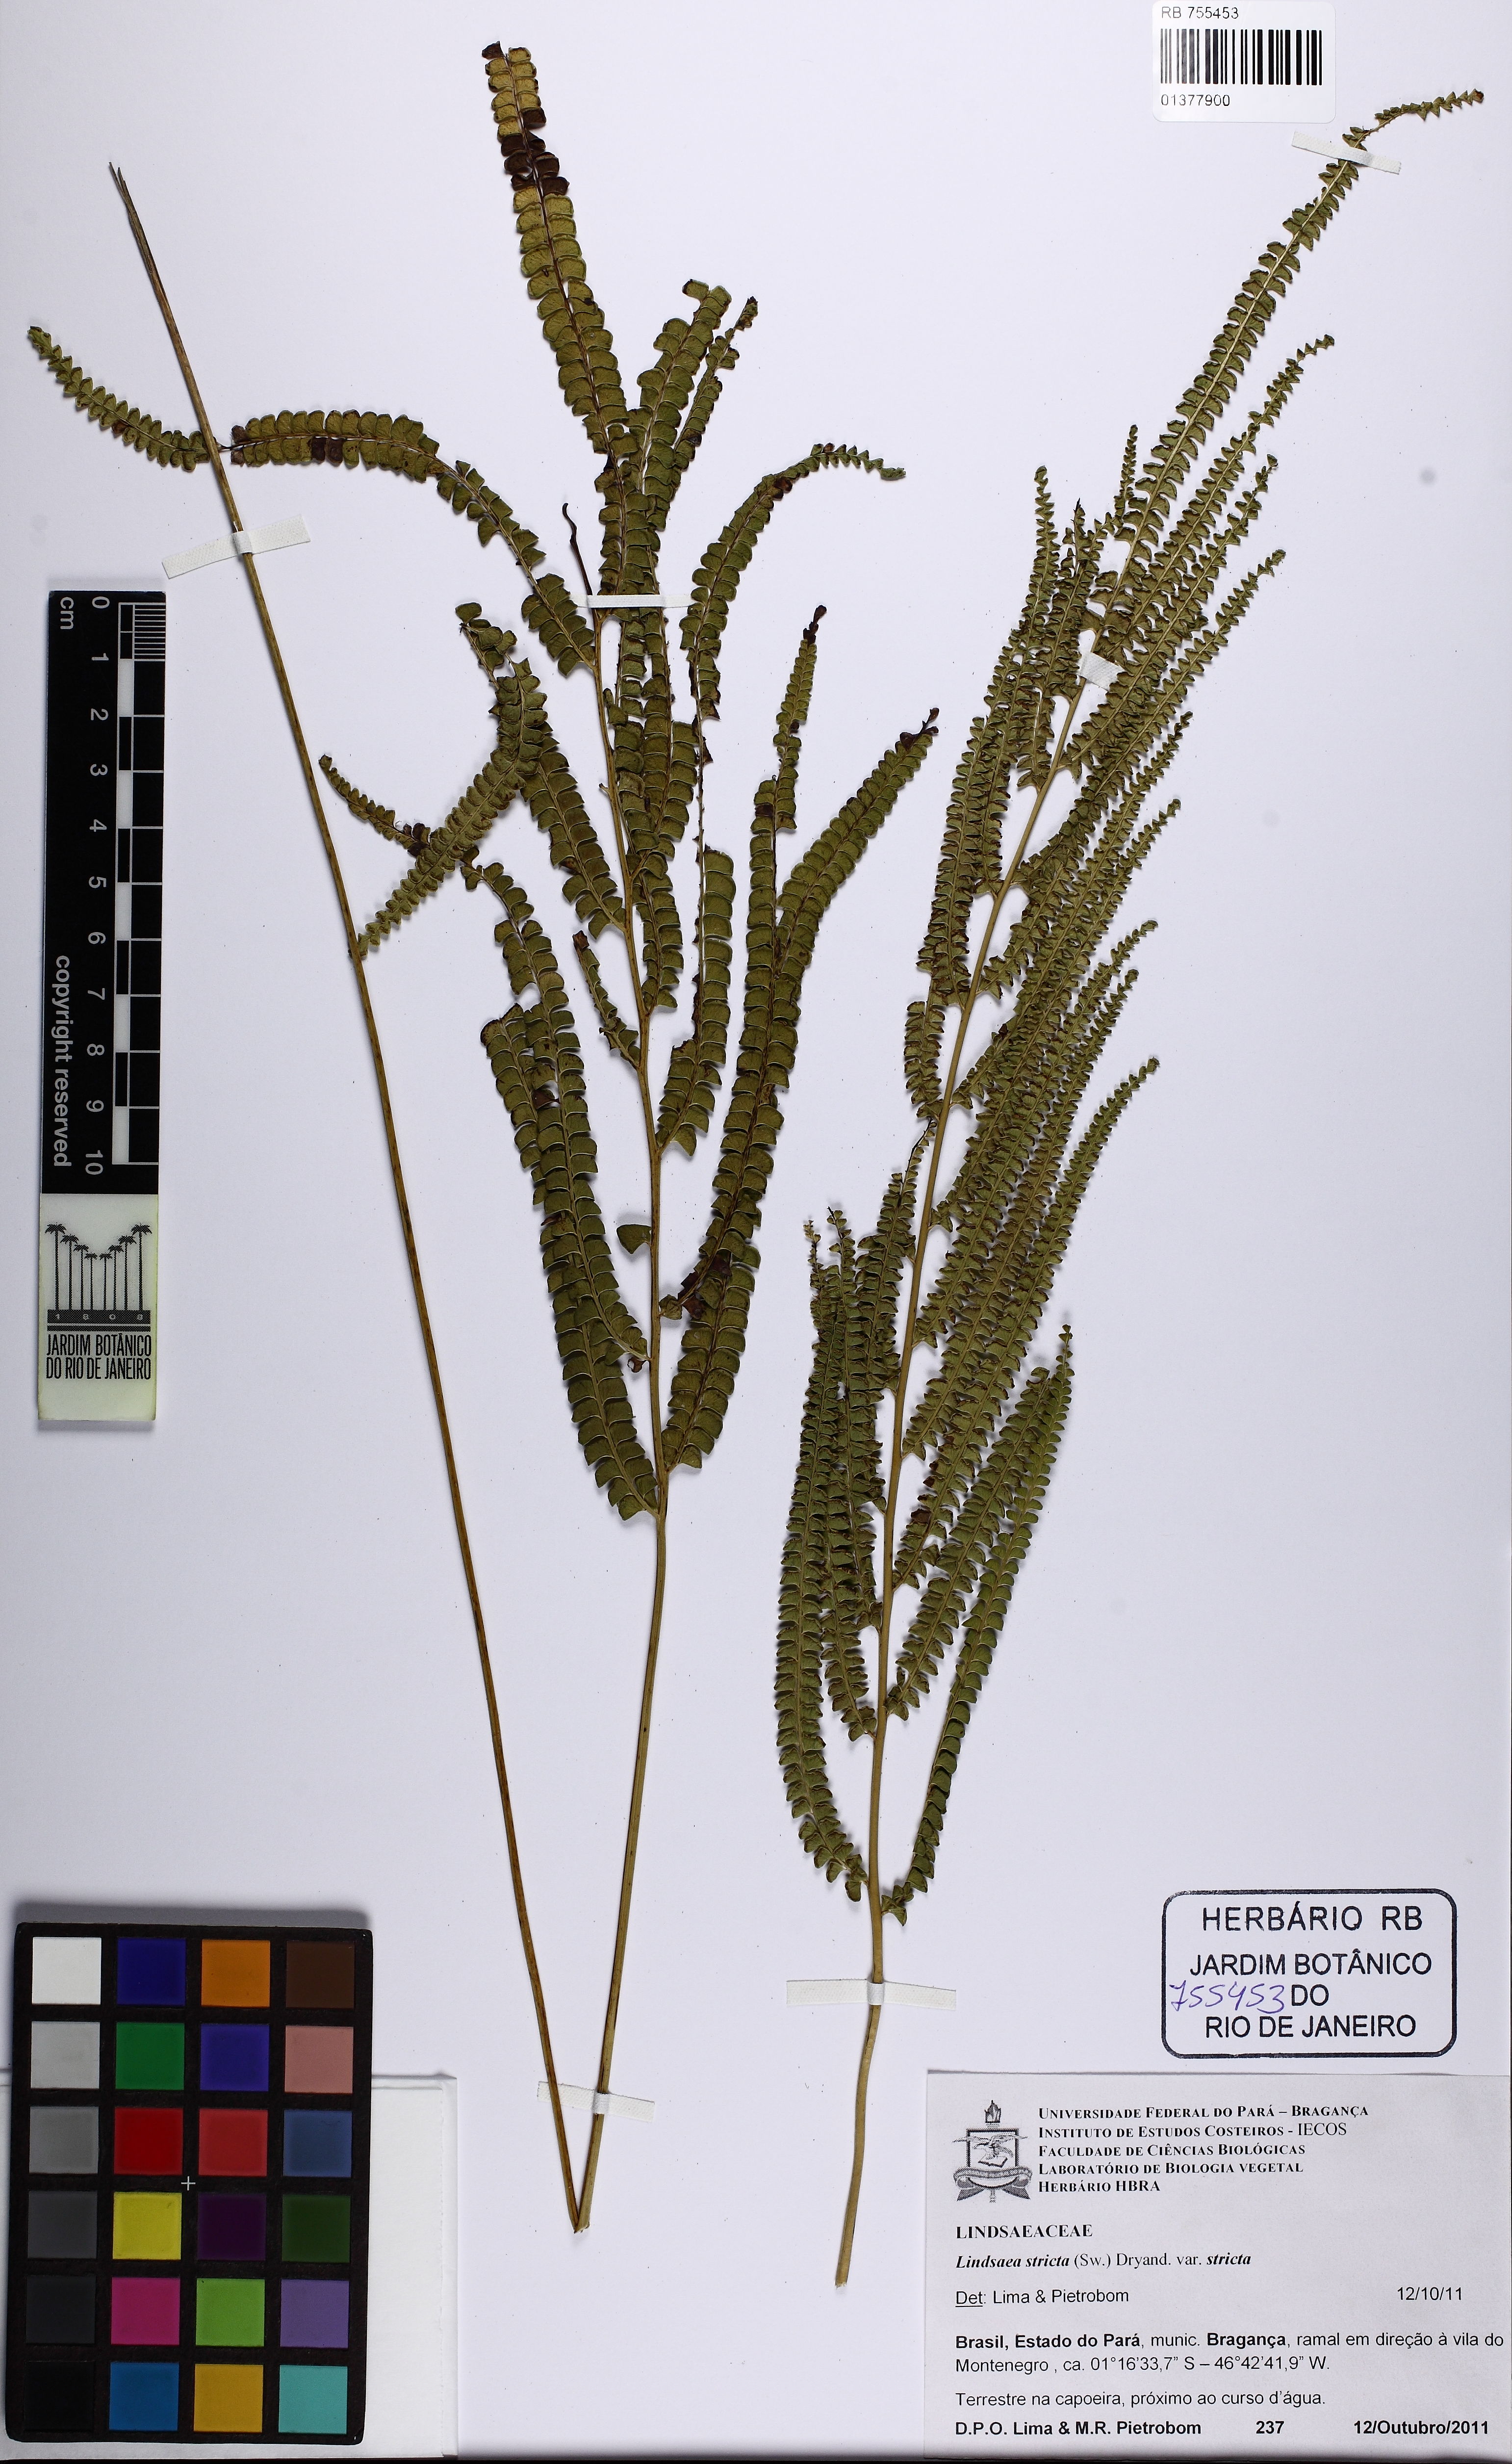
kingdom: Plantae
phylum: Tracheophyta
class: Polypodiopsida
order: Polypodiales
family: Lindsaeaceae
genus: Lindsaea
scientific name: Lindsaea stricta
